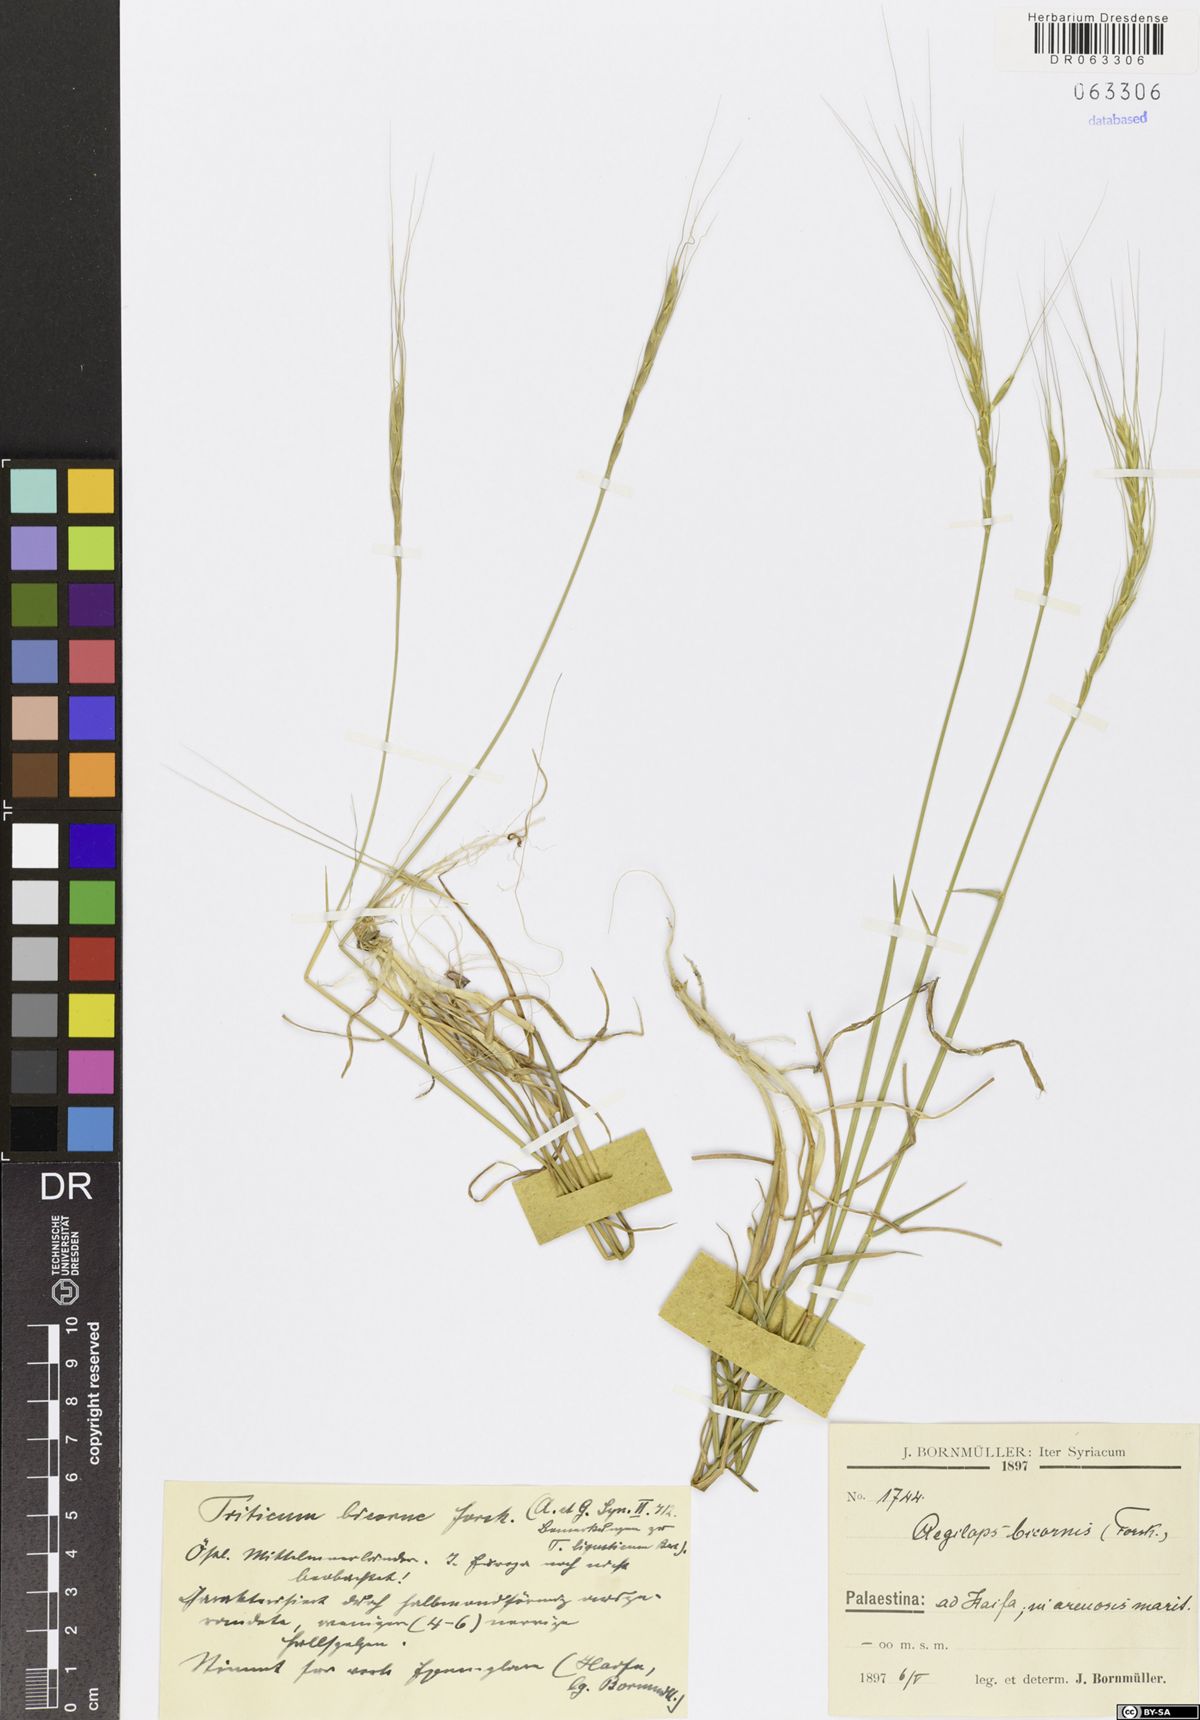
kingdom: Plantae
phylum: Tracheophyta
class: Liliopsida
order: Poales
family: Poaceae
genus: Aegilops
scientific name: Aegilops bicornis
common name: Goat grass
